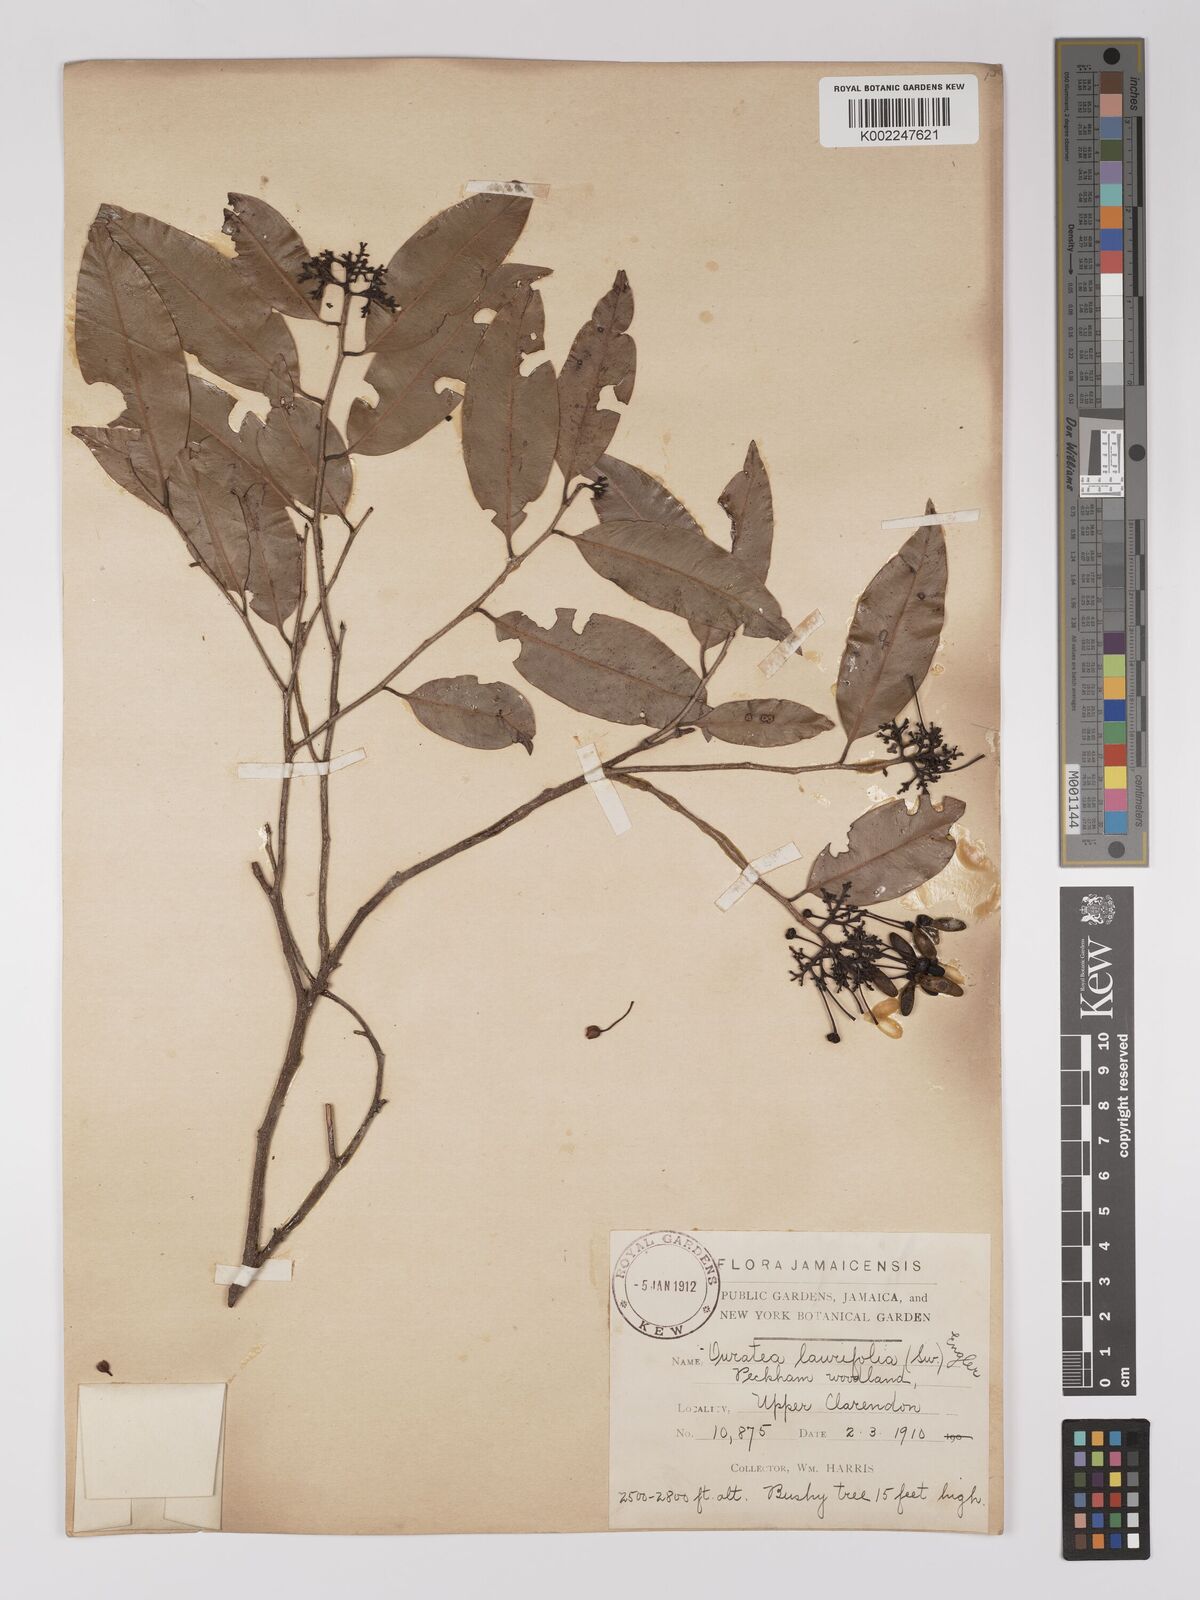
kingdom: Plantae
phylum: Tracheophyta
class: Magnoliopsida
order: Malpighiales
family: Ochnaceae
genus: Ouratea
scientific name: Ouratea laurifolia
